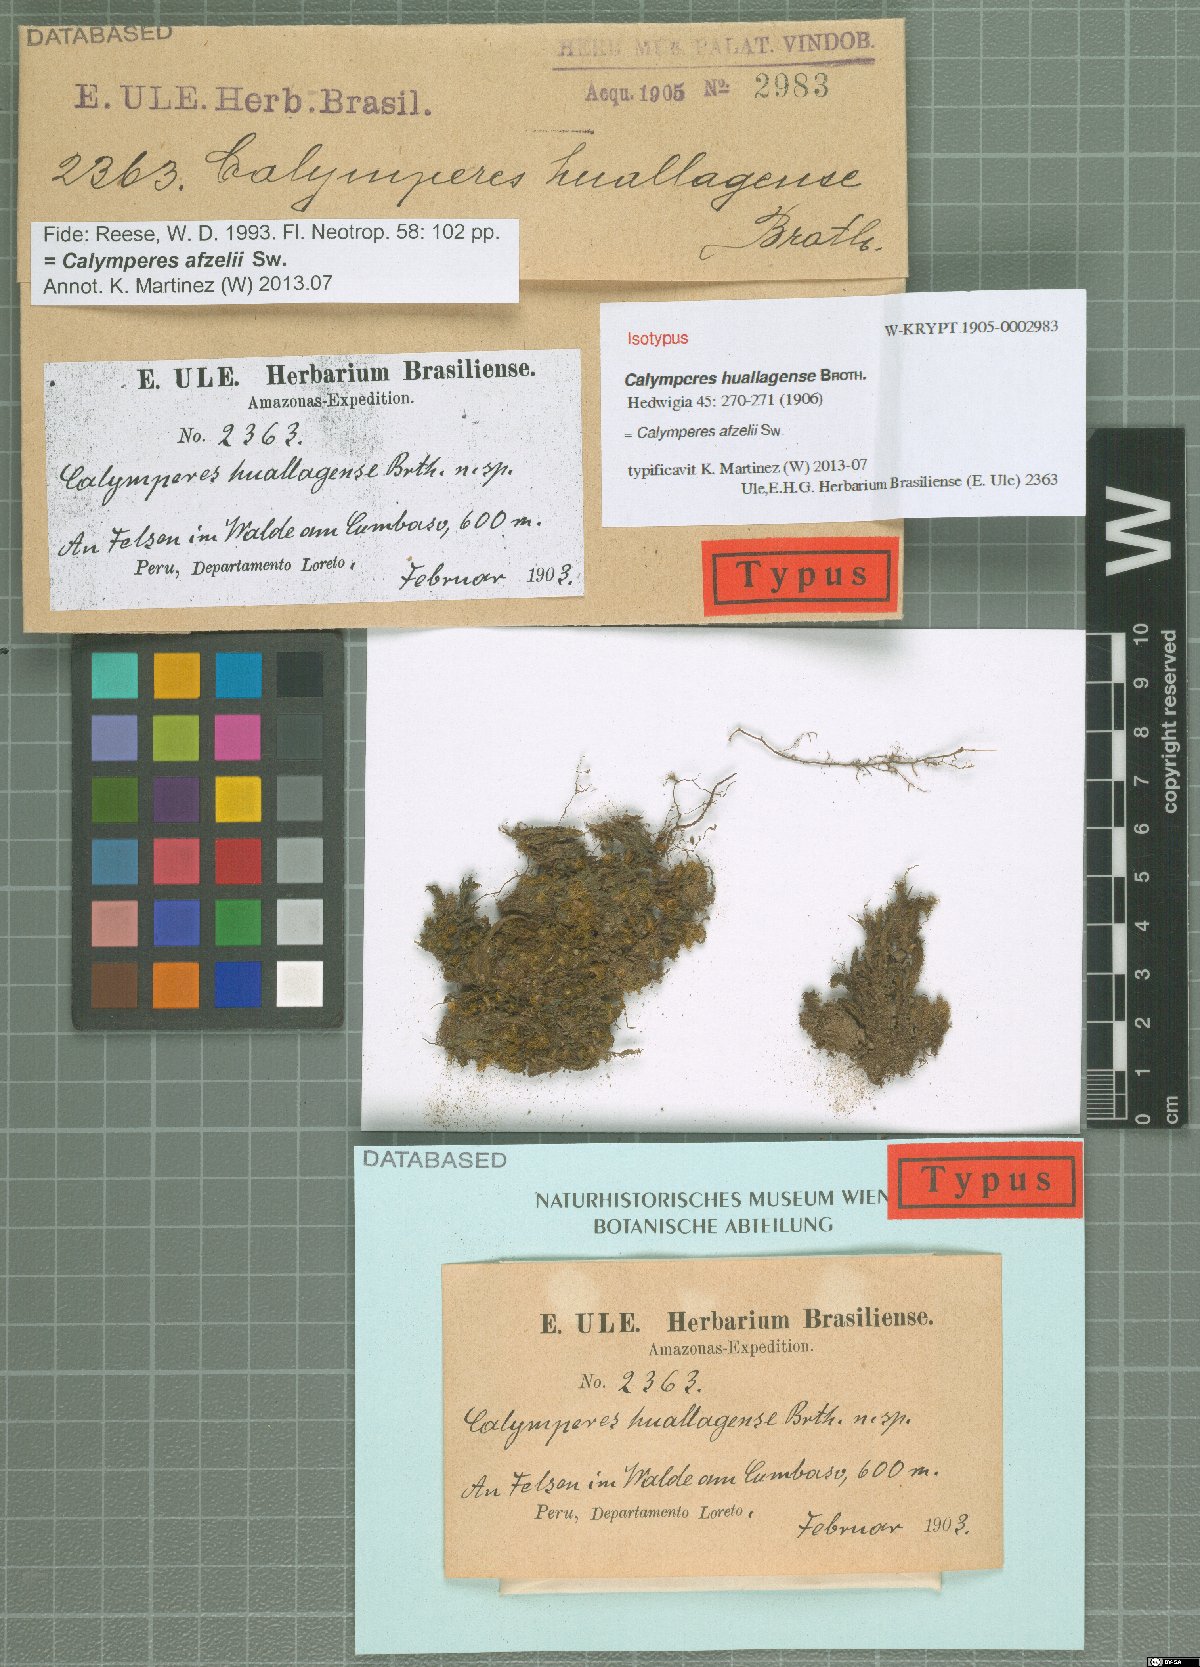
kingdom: Plantae
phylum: Bryophyta
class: Bryopsida
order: Dicranales
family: Calymperaceae
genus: Calymperes
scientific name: Calymperes afzelii
